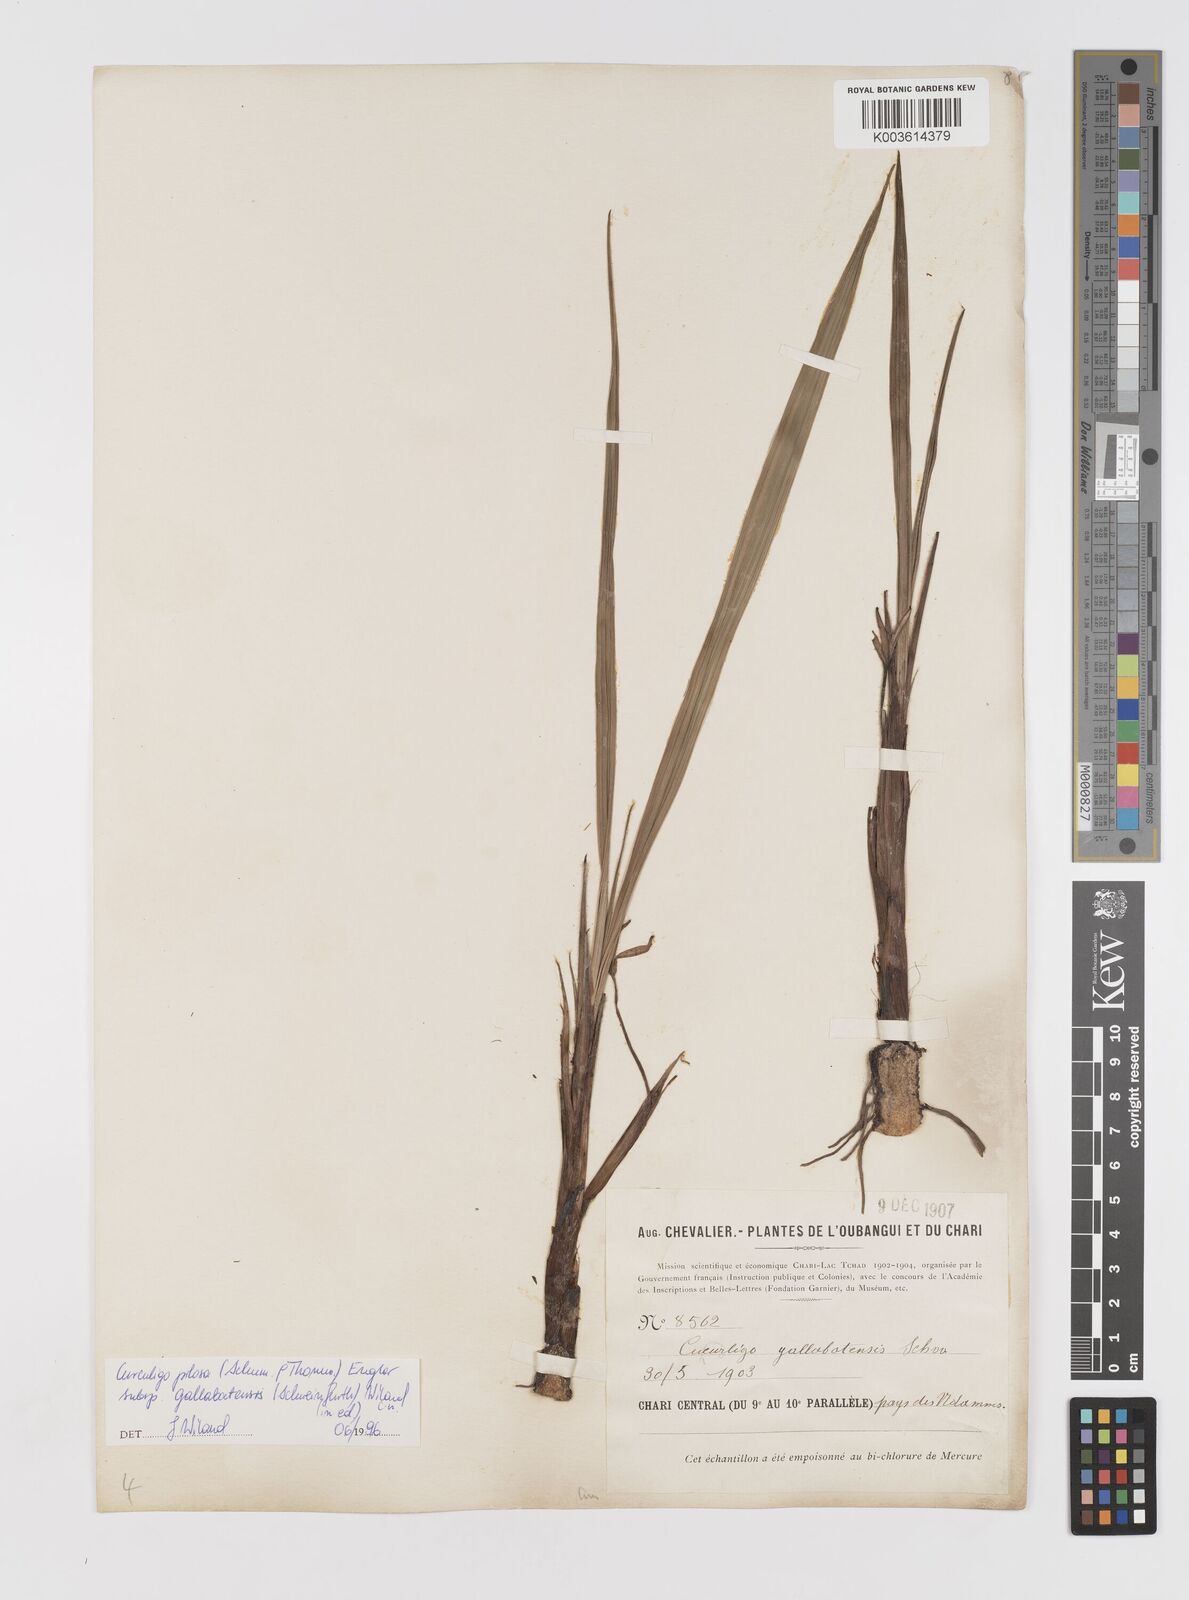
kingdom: Plantae
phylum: Tracheophyta
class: Liliopsida
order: Asparagales
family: Hypoxidaceae
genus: Curculigo
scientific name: Curculigo pilosa
